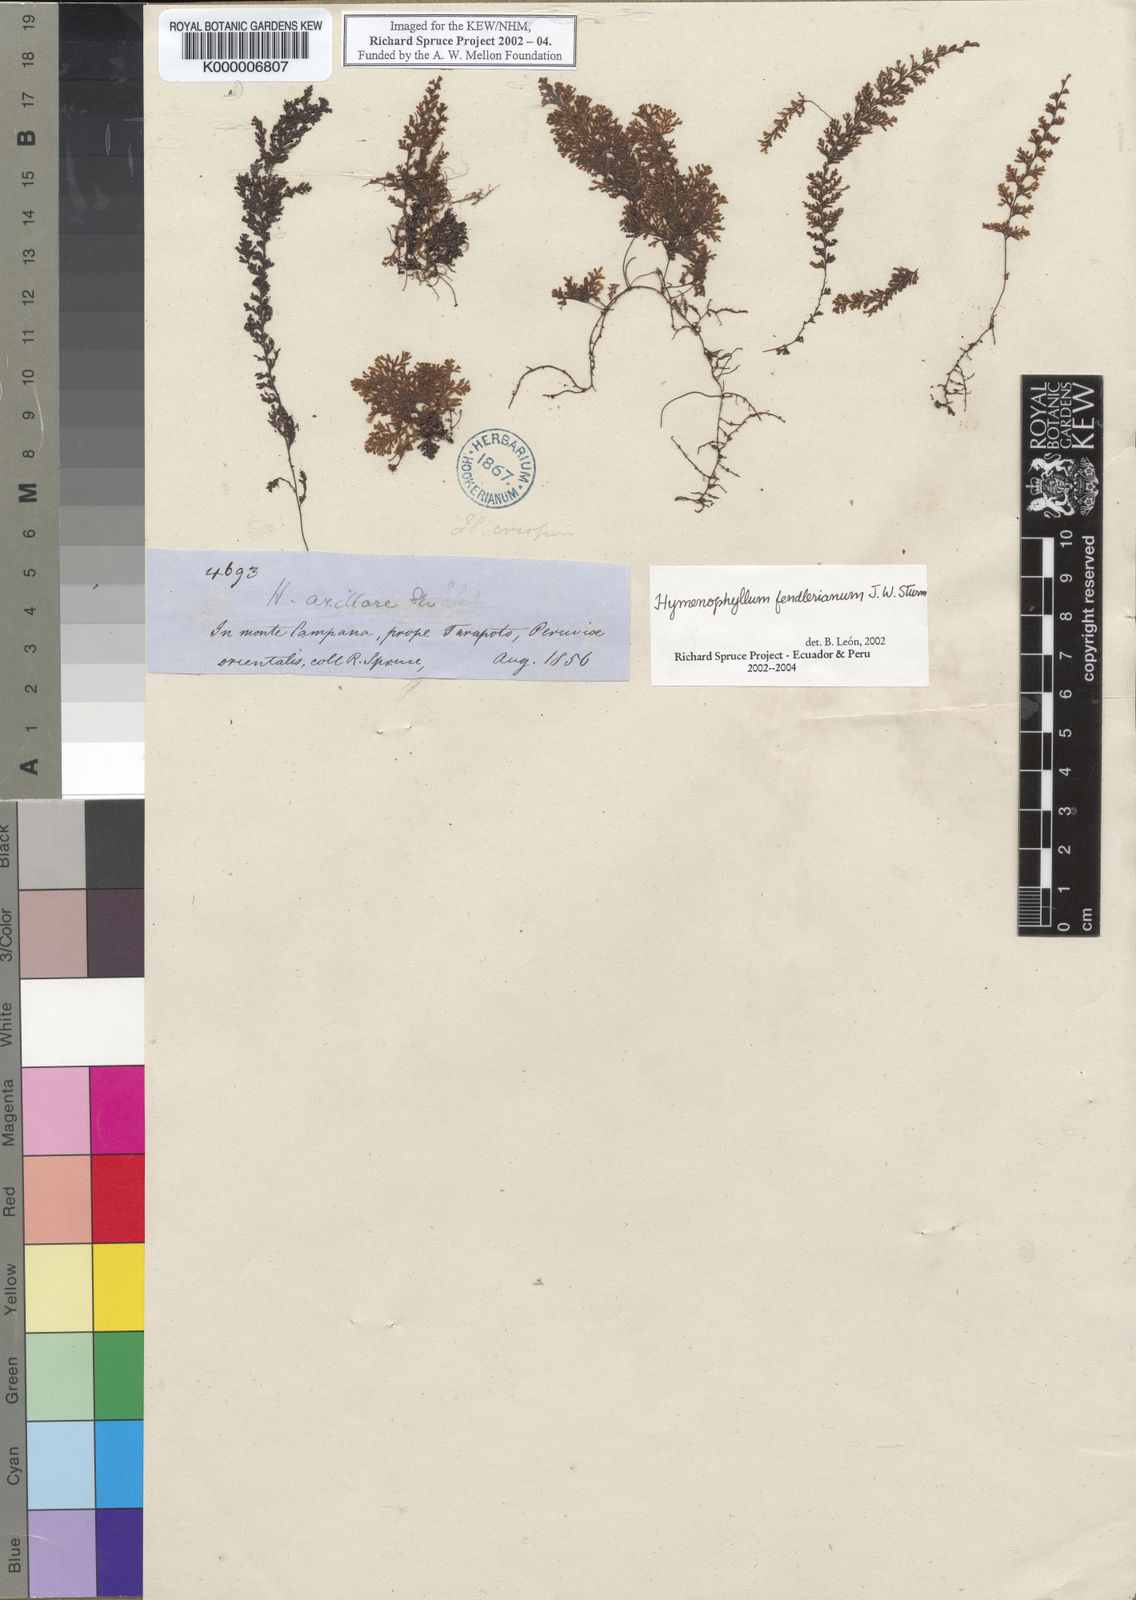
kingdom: Plantae
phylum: Tracheophyta
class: Polypodiopsida
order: Hymenophyllales
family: Hymenophyllaceae
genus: Hymenophyllum
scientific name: Hymenophyllum fendlerianum
